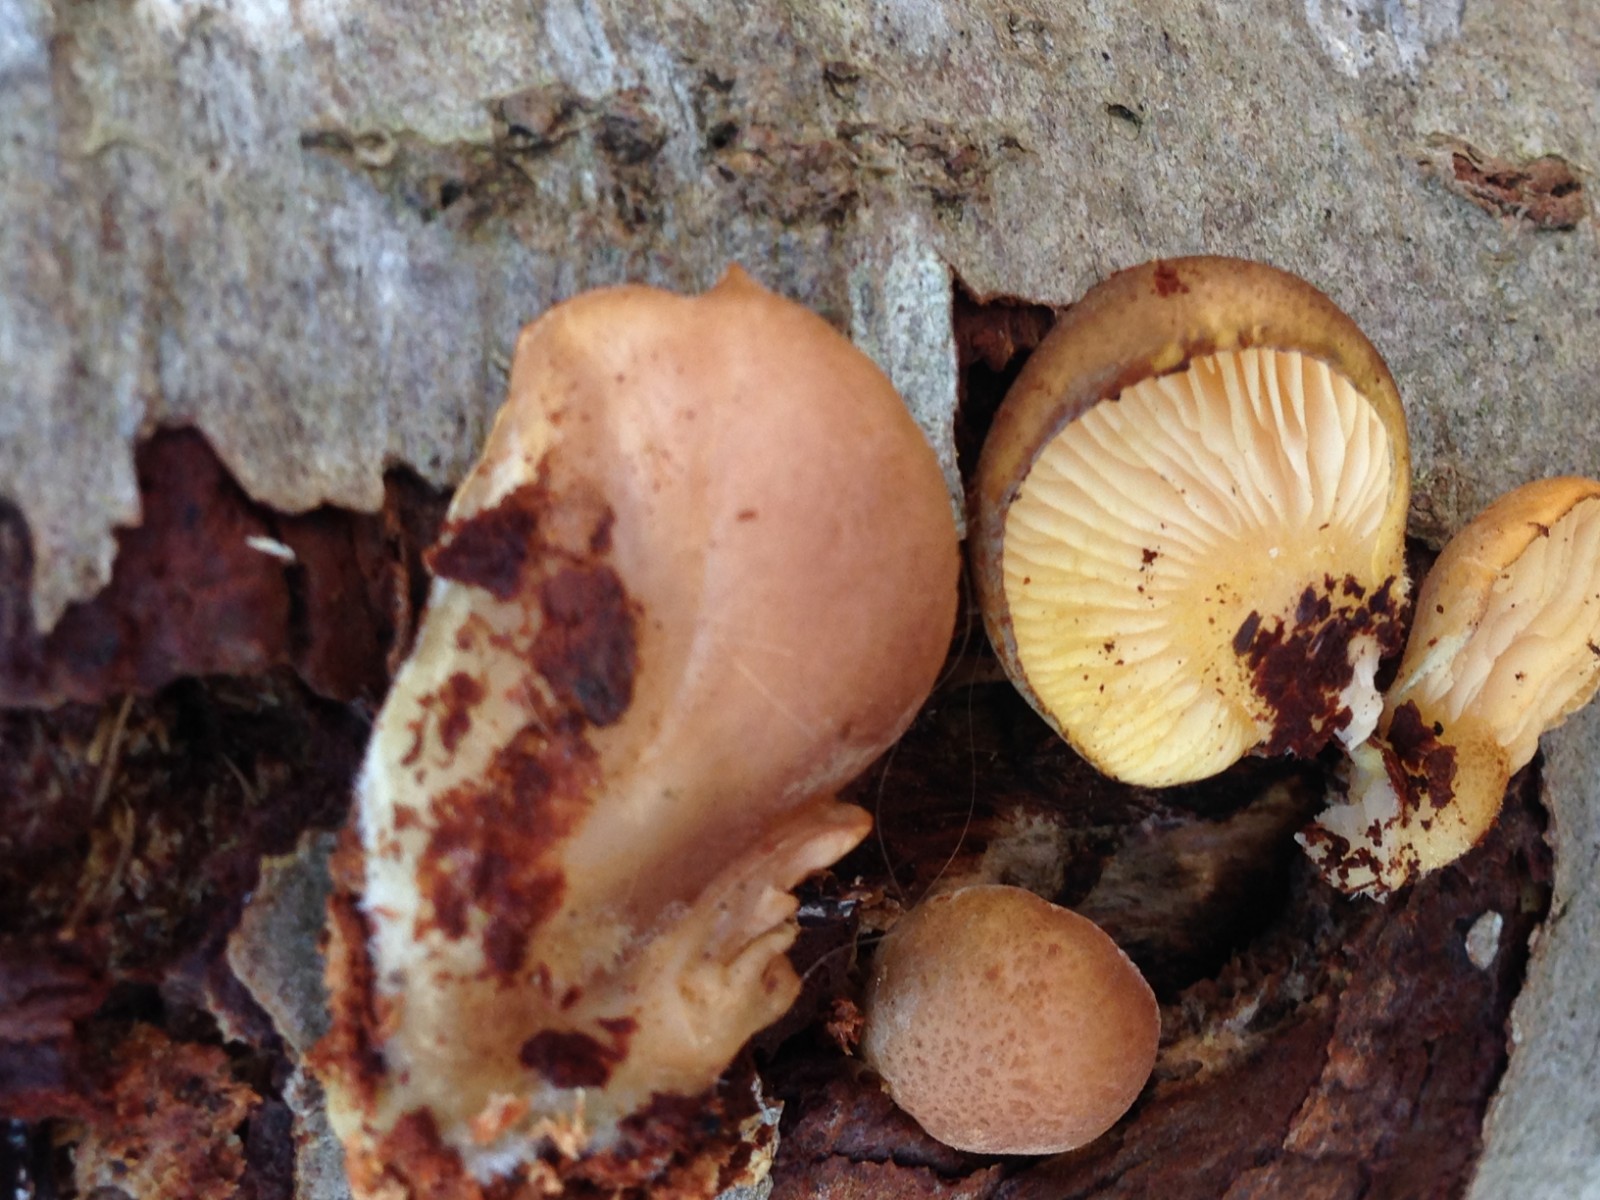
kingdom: Fungi
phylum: Basidiomycota
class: Agaricomycetes
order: Agaricales
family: Sarcomyxaceae
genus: Sarcomyxa
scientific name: Sarcomyxa serotina
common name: gummihat
